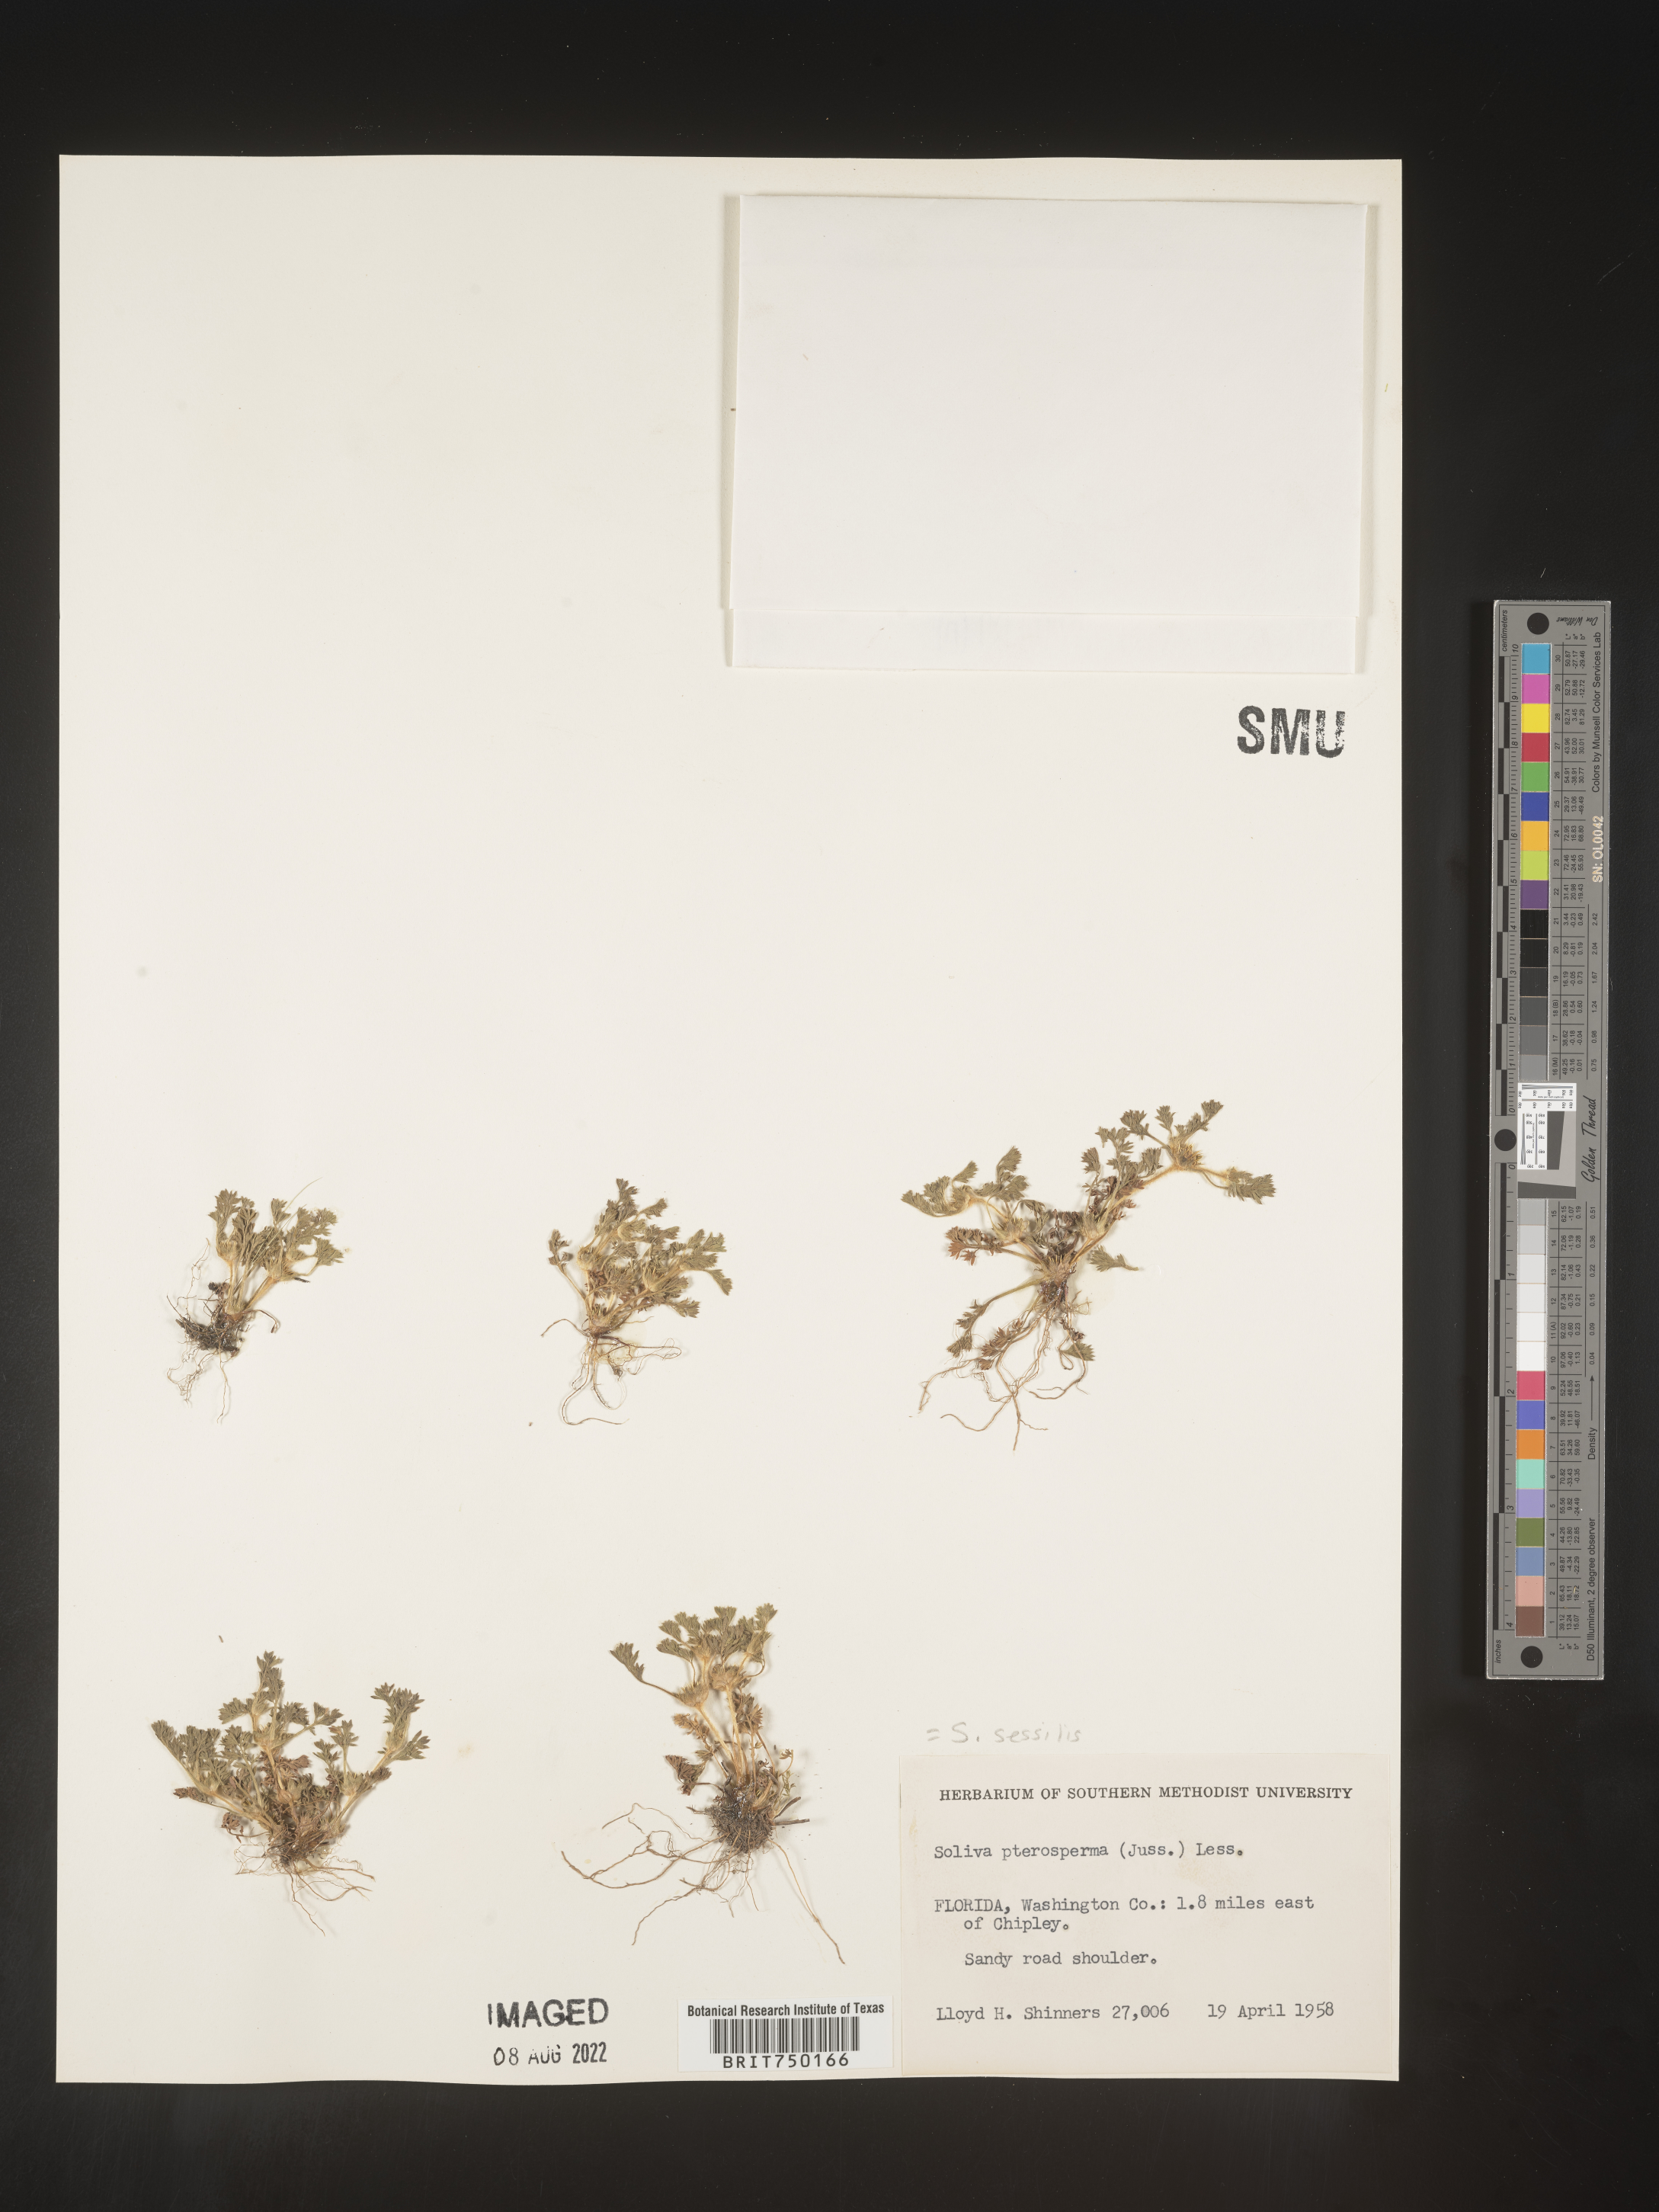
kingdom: Plantae
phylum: Tracheophyta
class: Magnoliopsida
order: Asterales
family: Asteraceae
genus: Soliva
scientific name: Soliva sessilis
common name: Field burrweed
